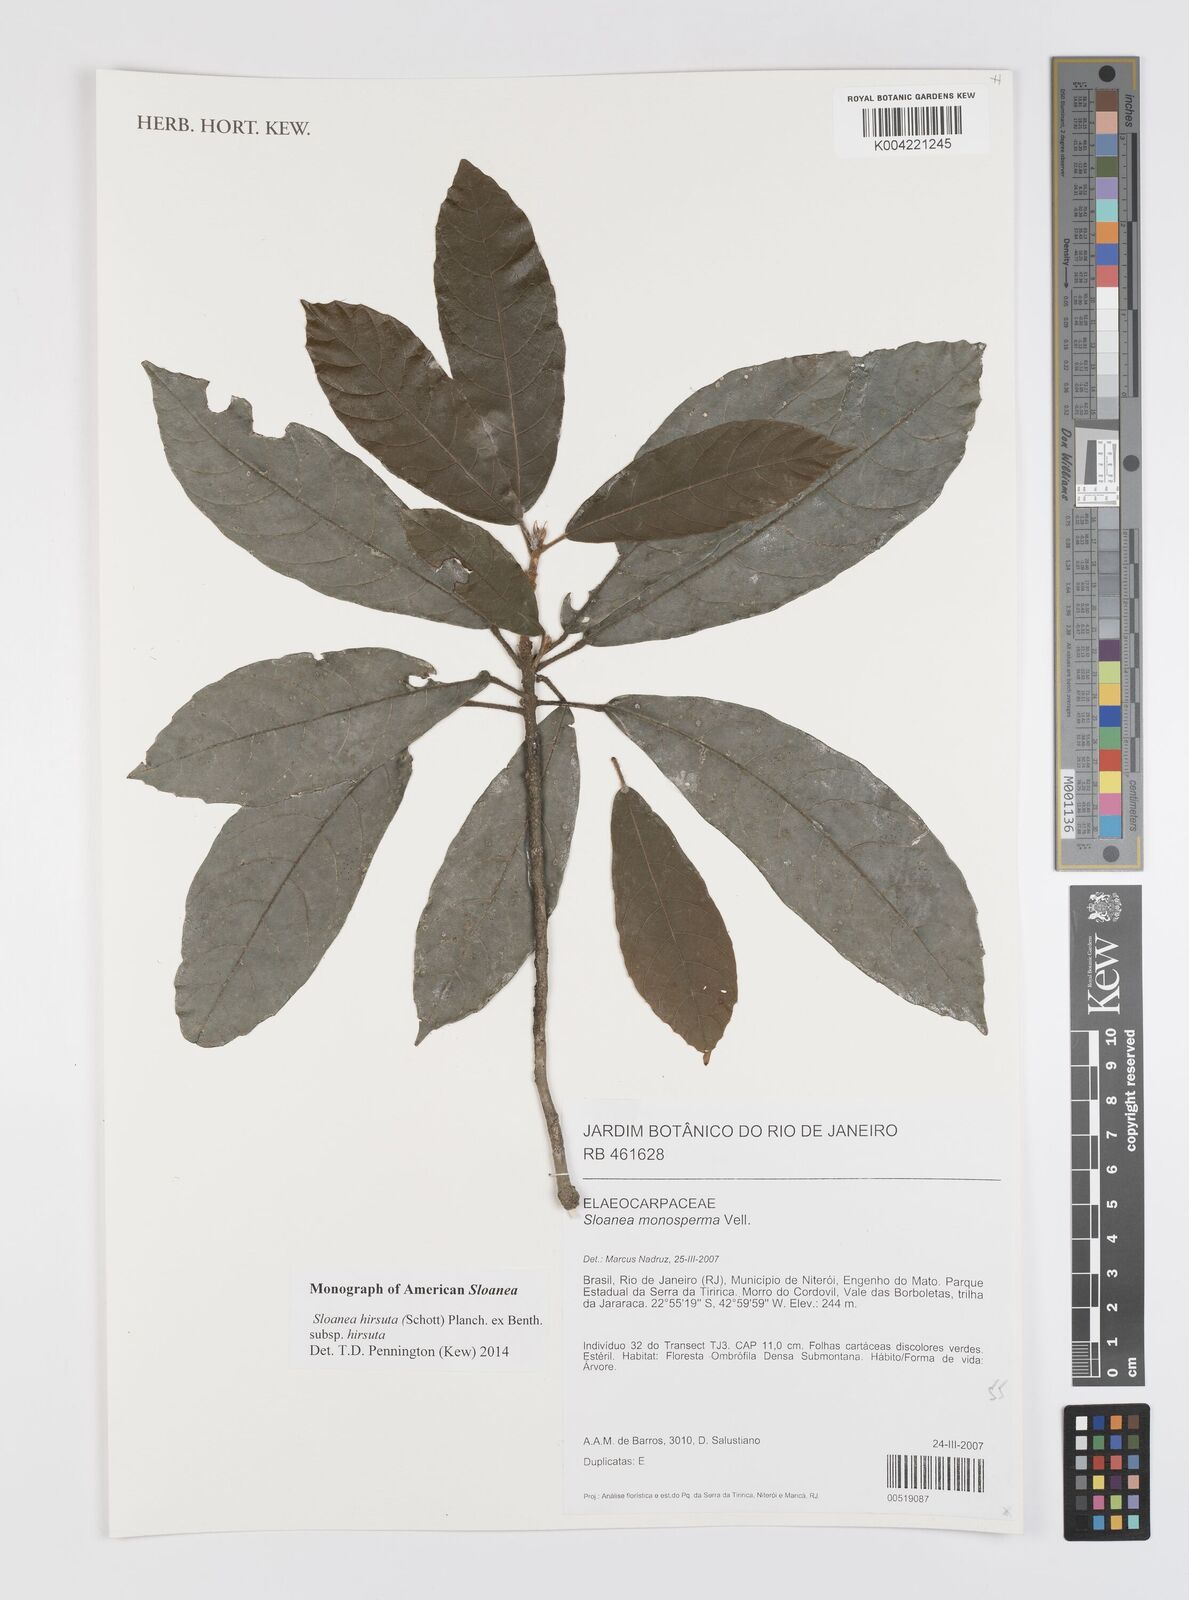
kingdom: Plantae
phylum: Tracheophyta
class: Magnoliopsida
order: Oxalidales
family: Elaeocarpaceae
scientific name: Elaeocarpaceae
